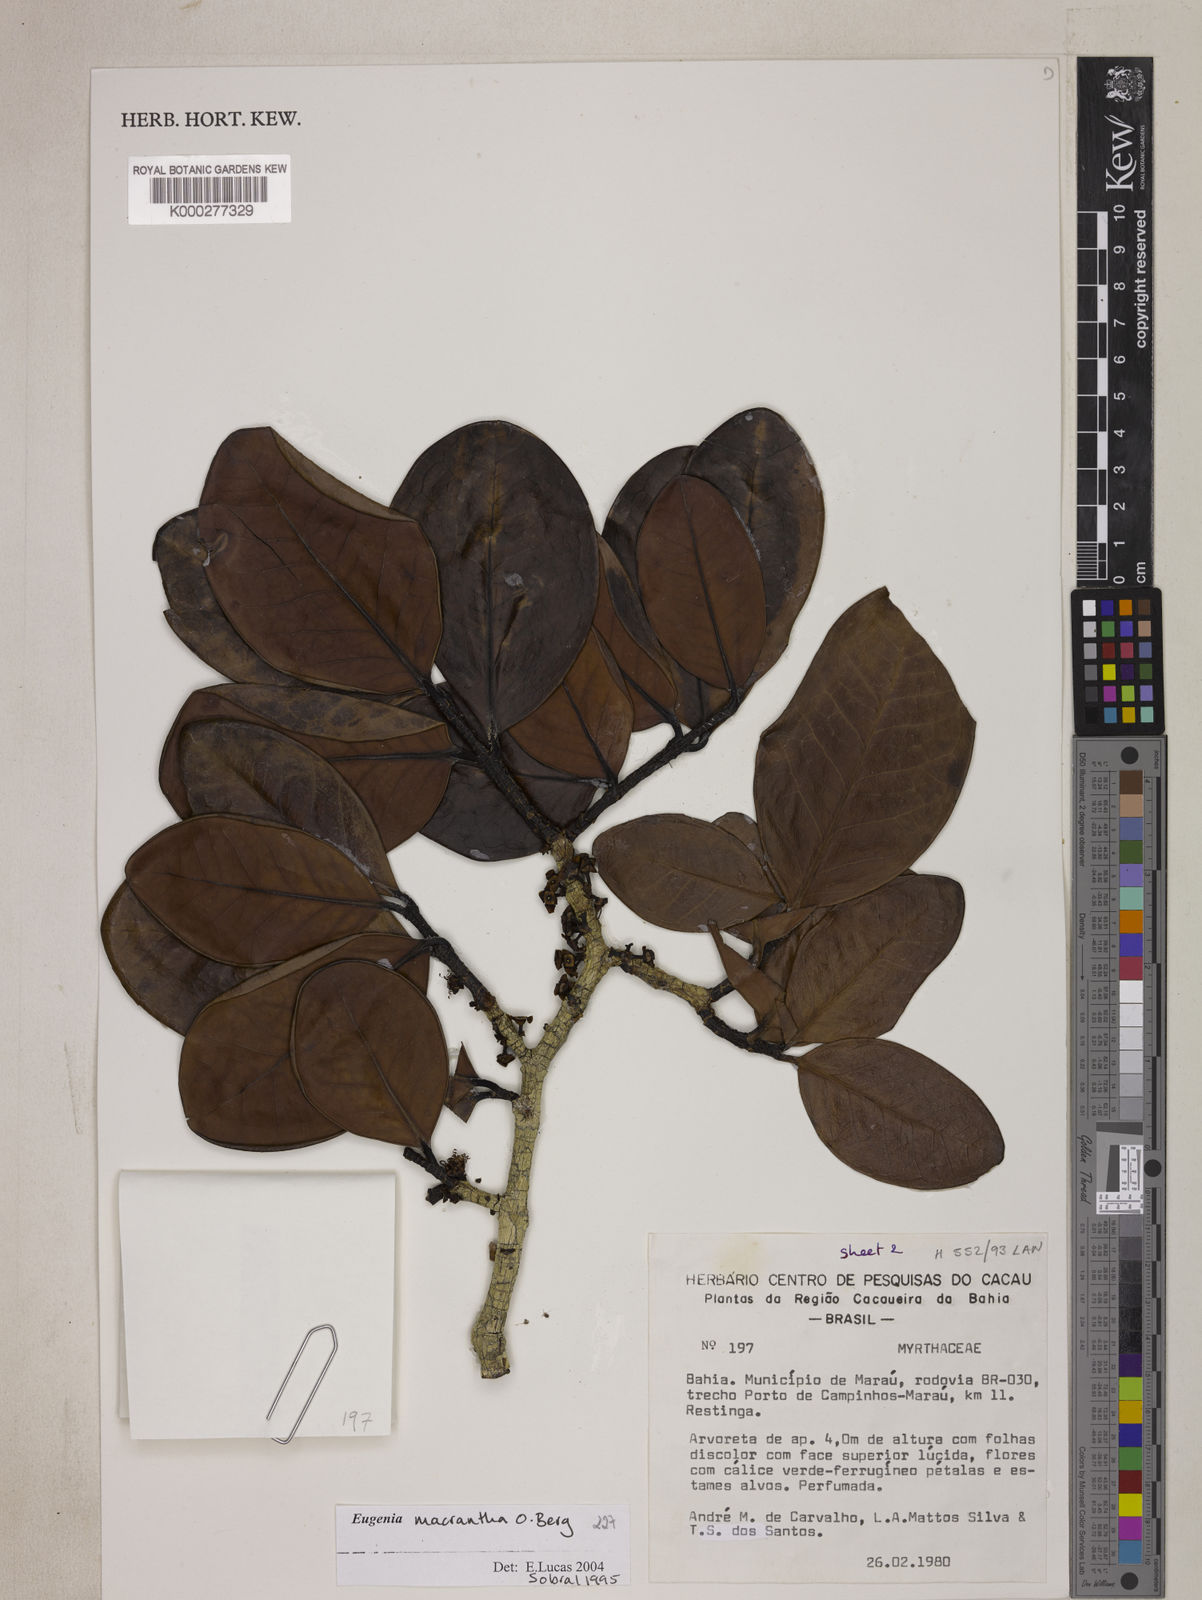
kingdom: Plantae
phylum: Tracheophyta
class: Magnoliopsida
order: Myrtales
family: Myrtaceae
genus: Eugenia
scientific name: Eugenia macrantha
